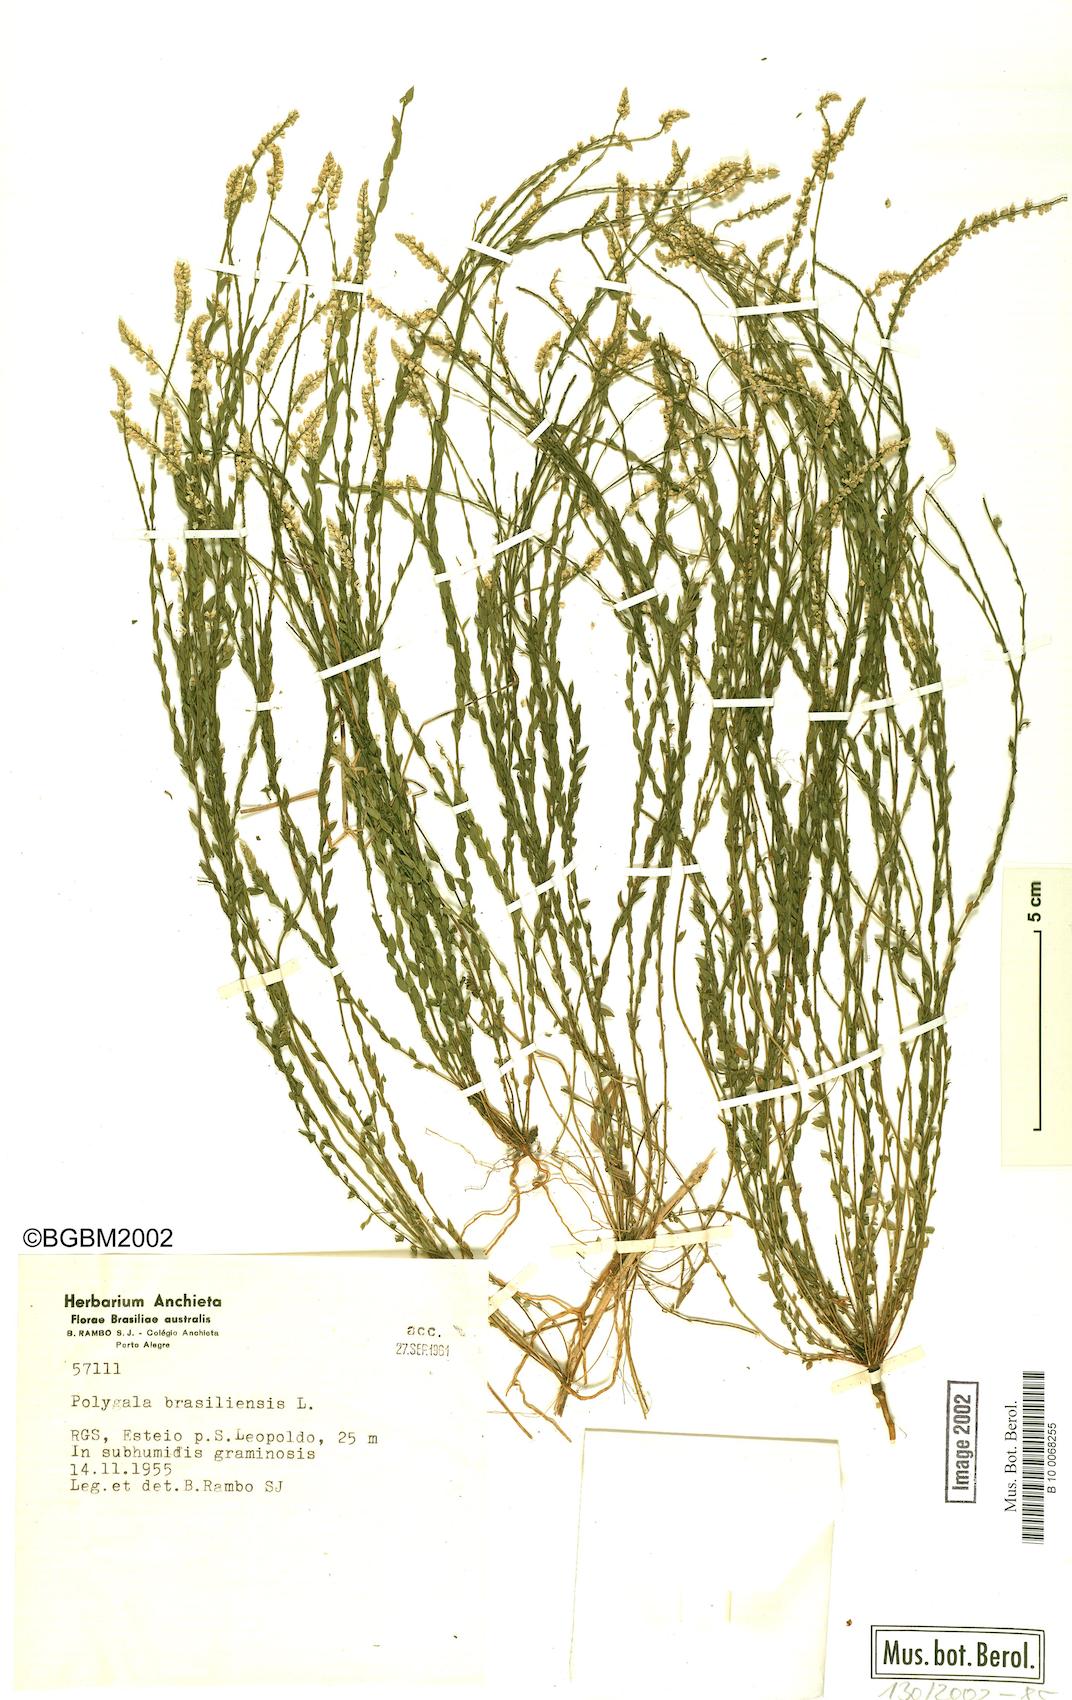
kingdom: Plantae
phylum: Tracheophyta
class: Magnoliopsida
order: Fabales
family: Polygalaceae
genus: Polygala
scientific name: Polygala brasiliensis
